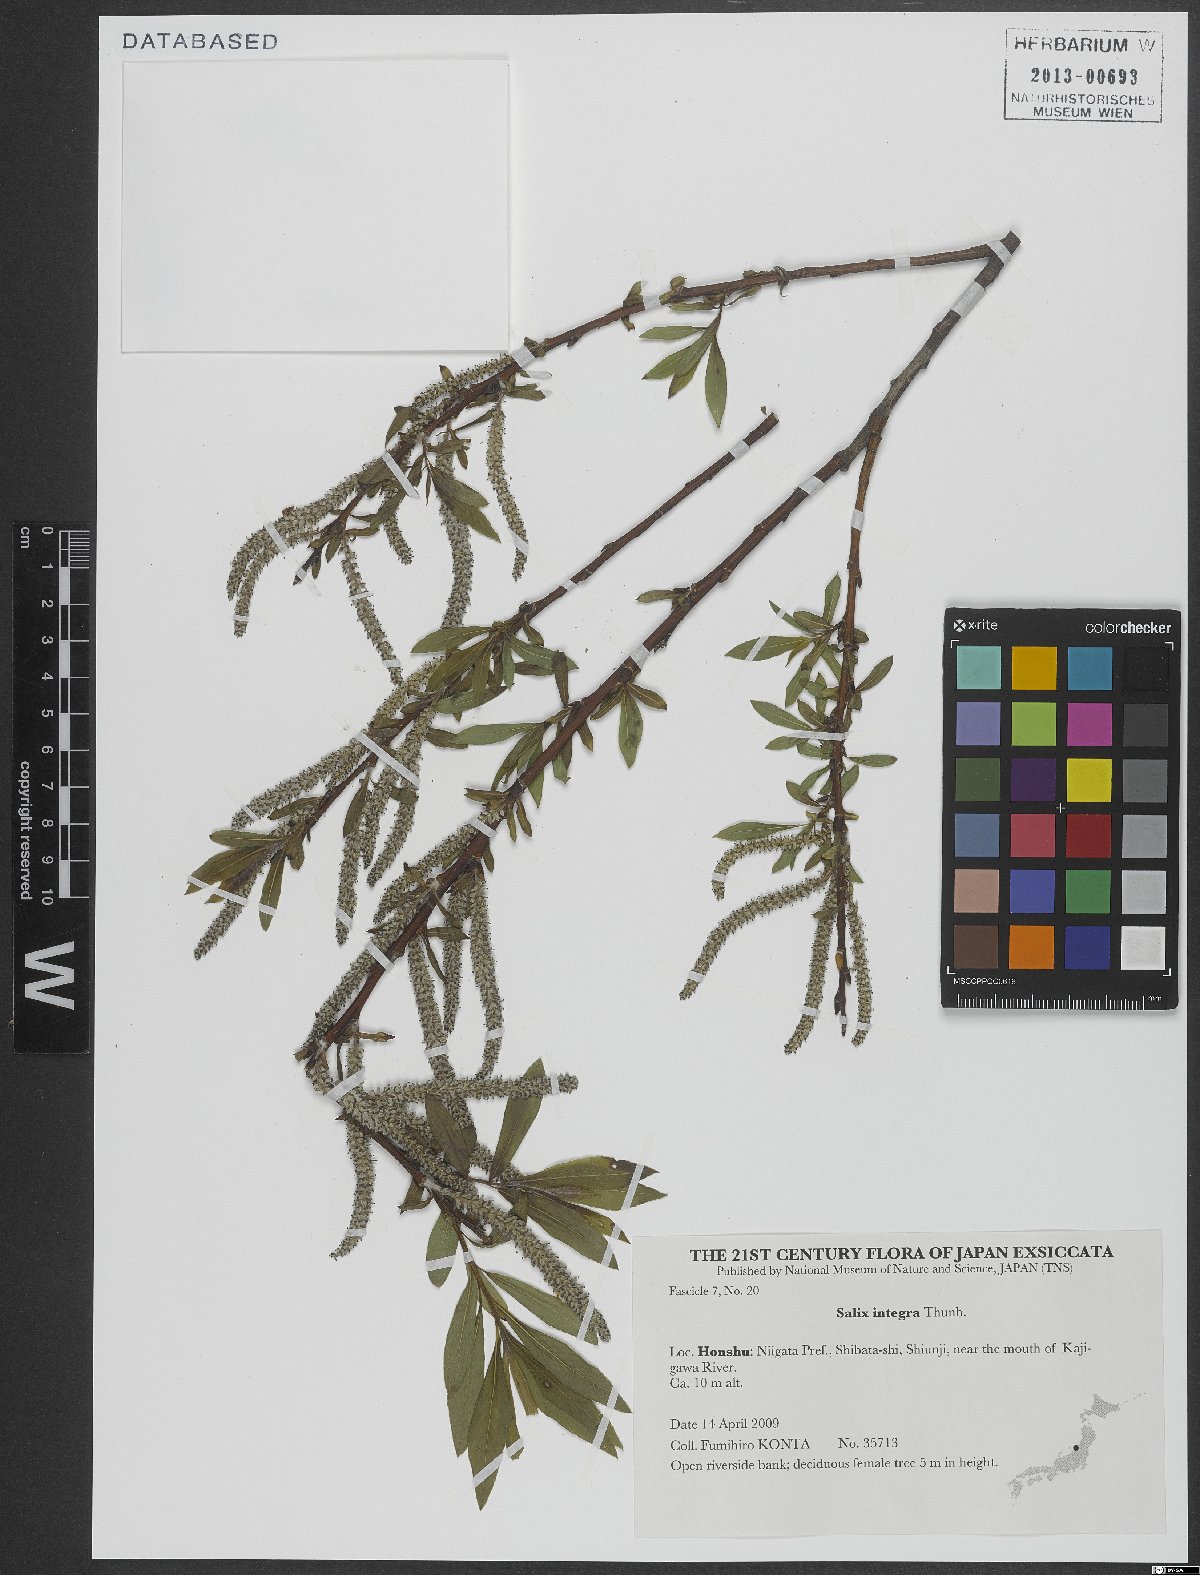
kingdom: Plantae
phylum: Tracheophyta
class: Magnoliopsida
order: Malpighiales
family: Salicaceae
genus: Salix
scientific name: Salix integra
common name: Dappled willow
